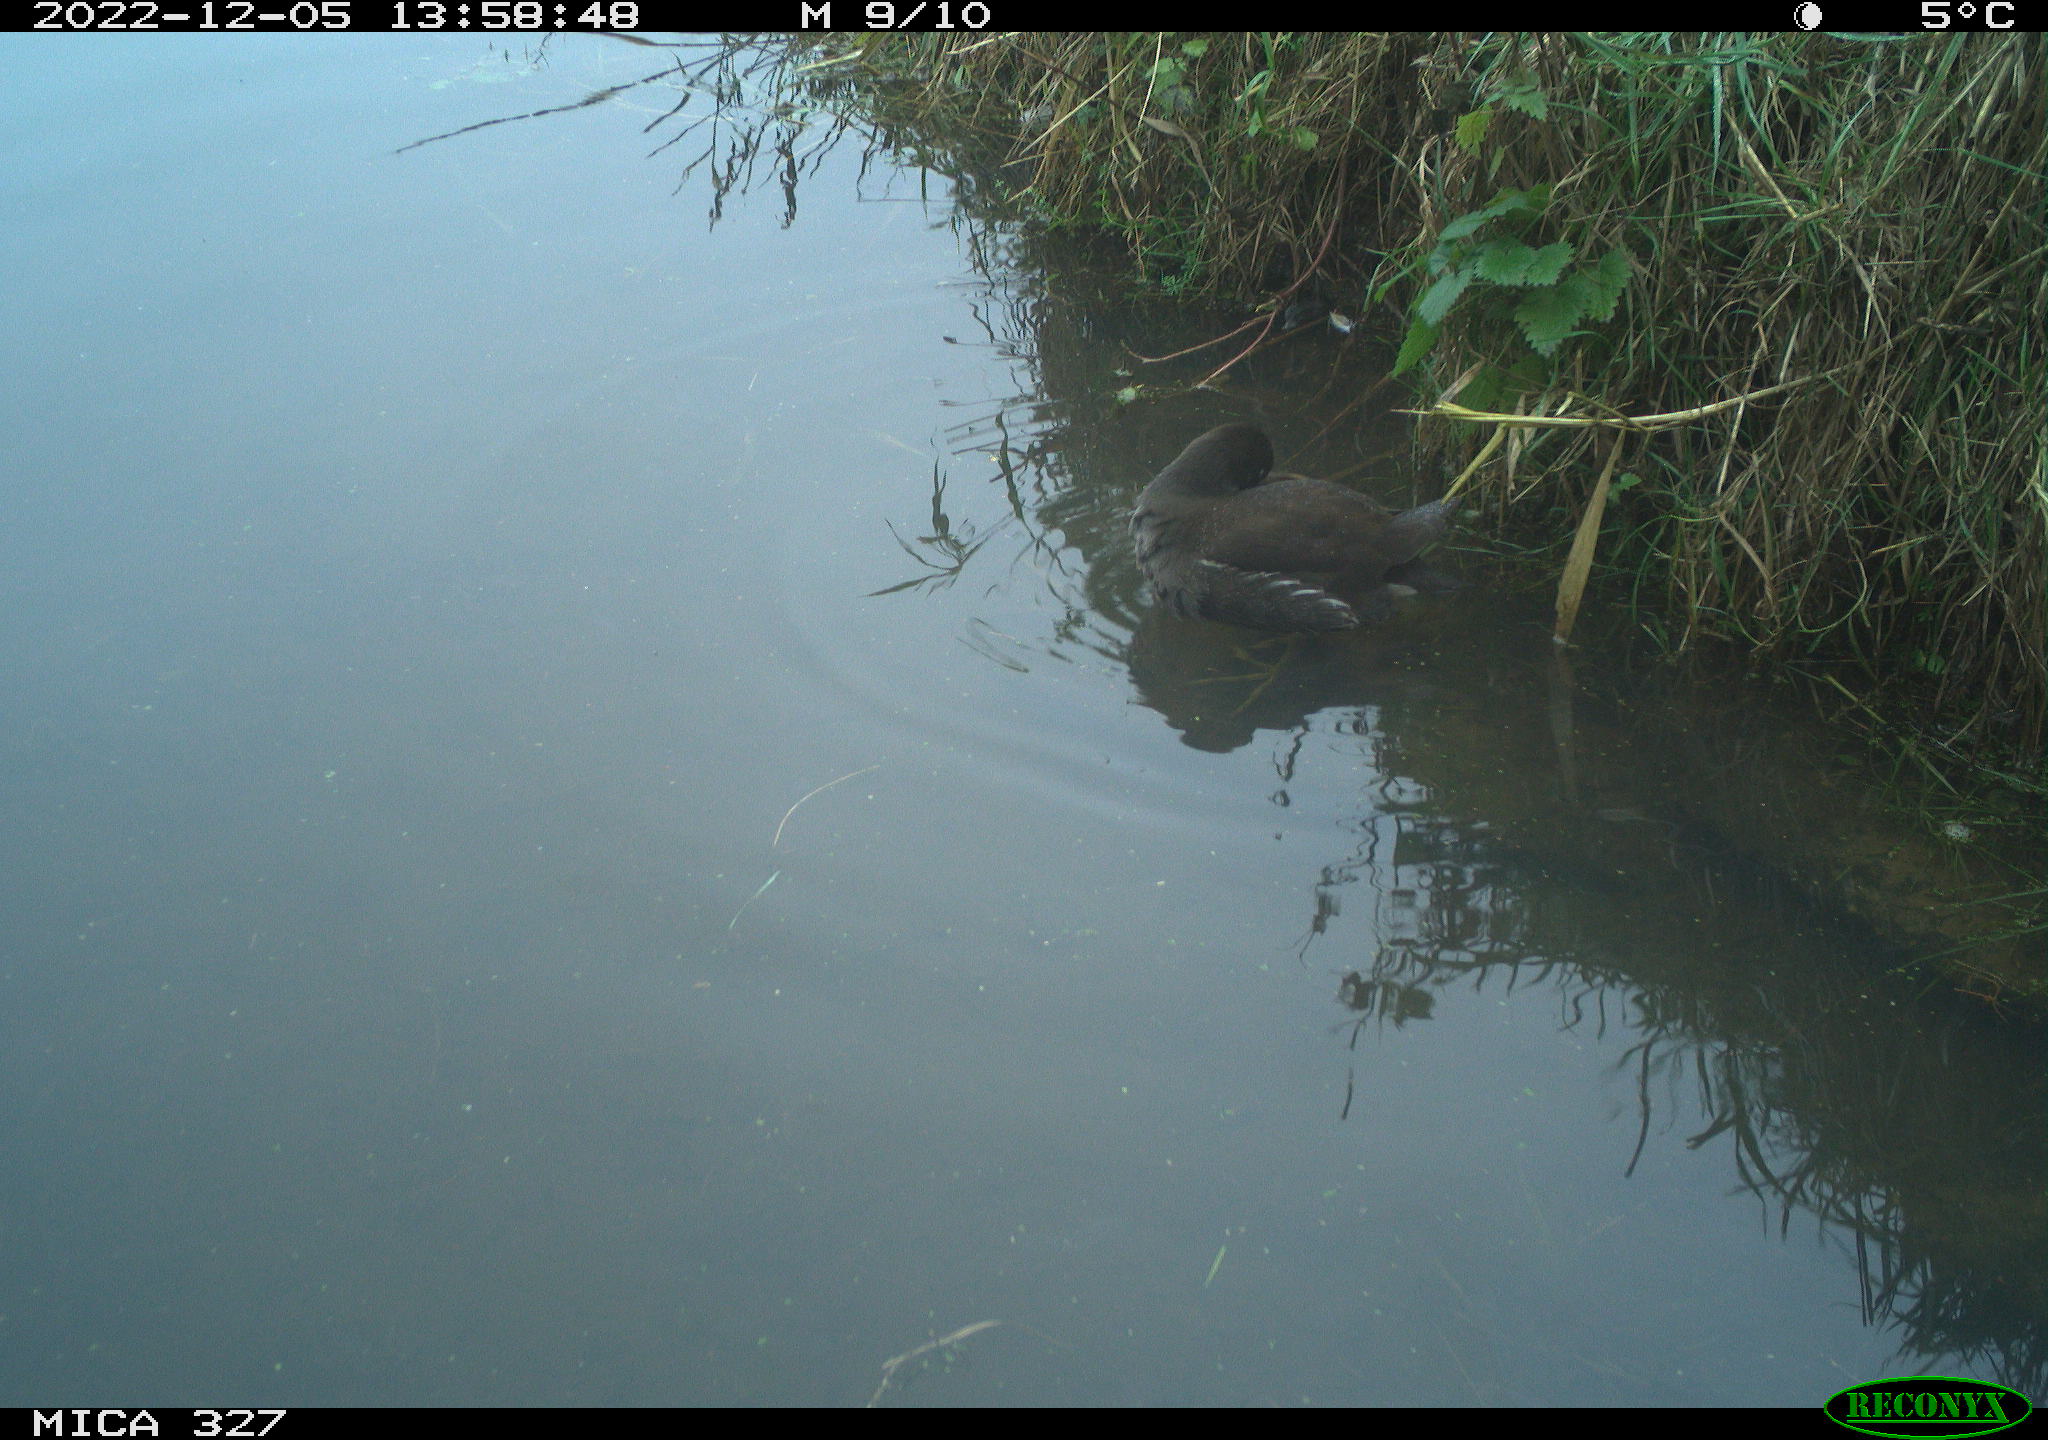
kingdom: Animalia
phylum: Chordata
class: Aves
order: Gruiformes
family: Rallidae
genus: Gallinula
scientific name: Gallinula chloropus
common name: Common moorhen
